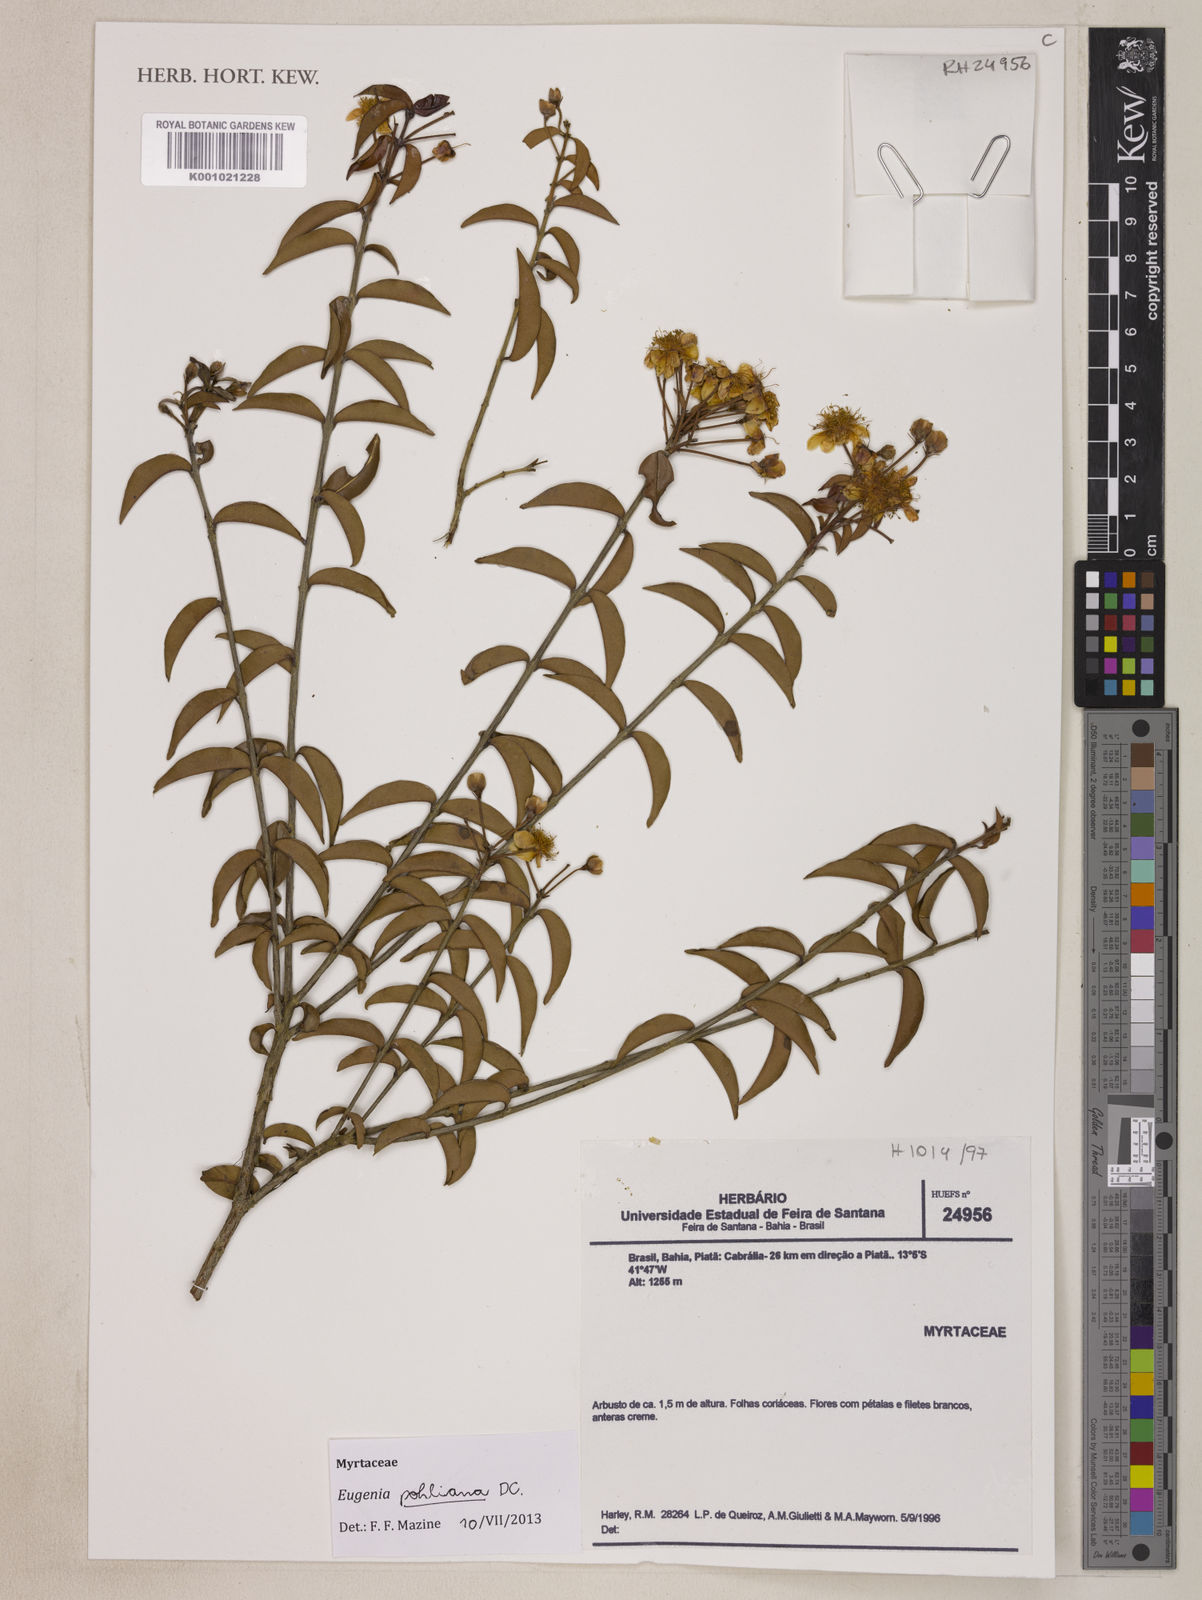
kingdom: Plantae
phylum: Tracheophyta
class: Magnoliopsida
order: Myrtales
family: Myrtaceae
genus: Eugenia
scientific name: Eugenia pohliana
